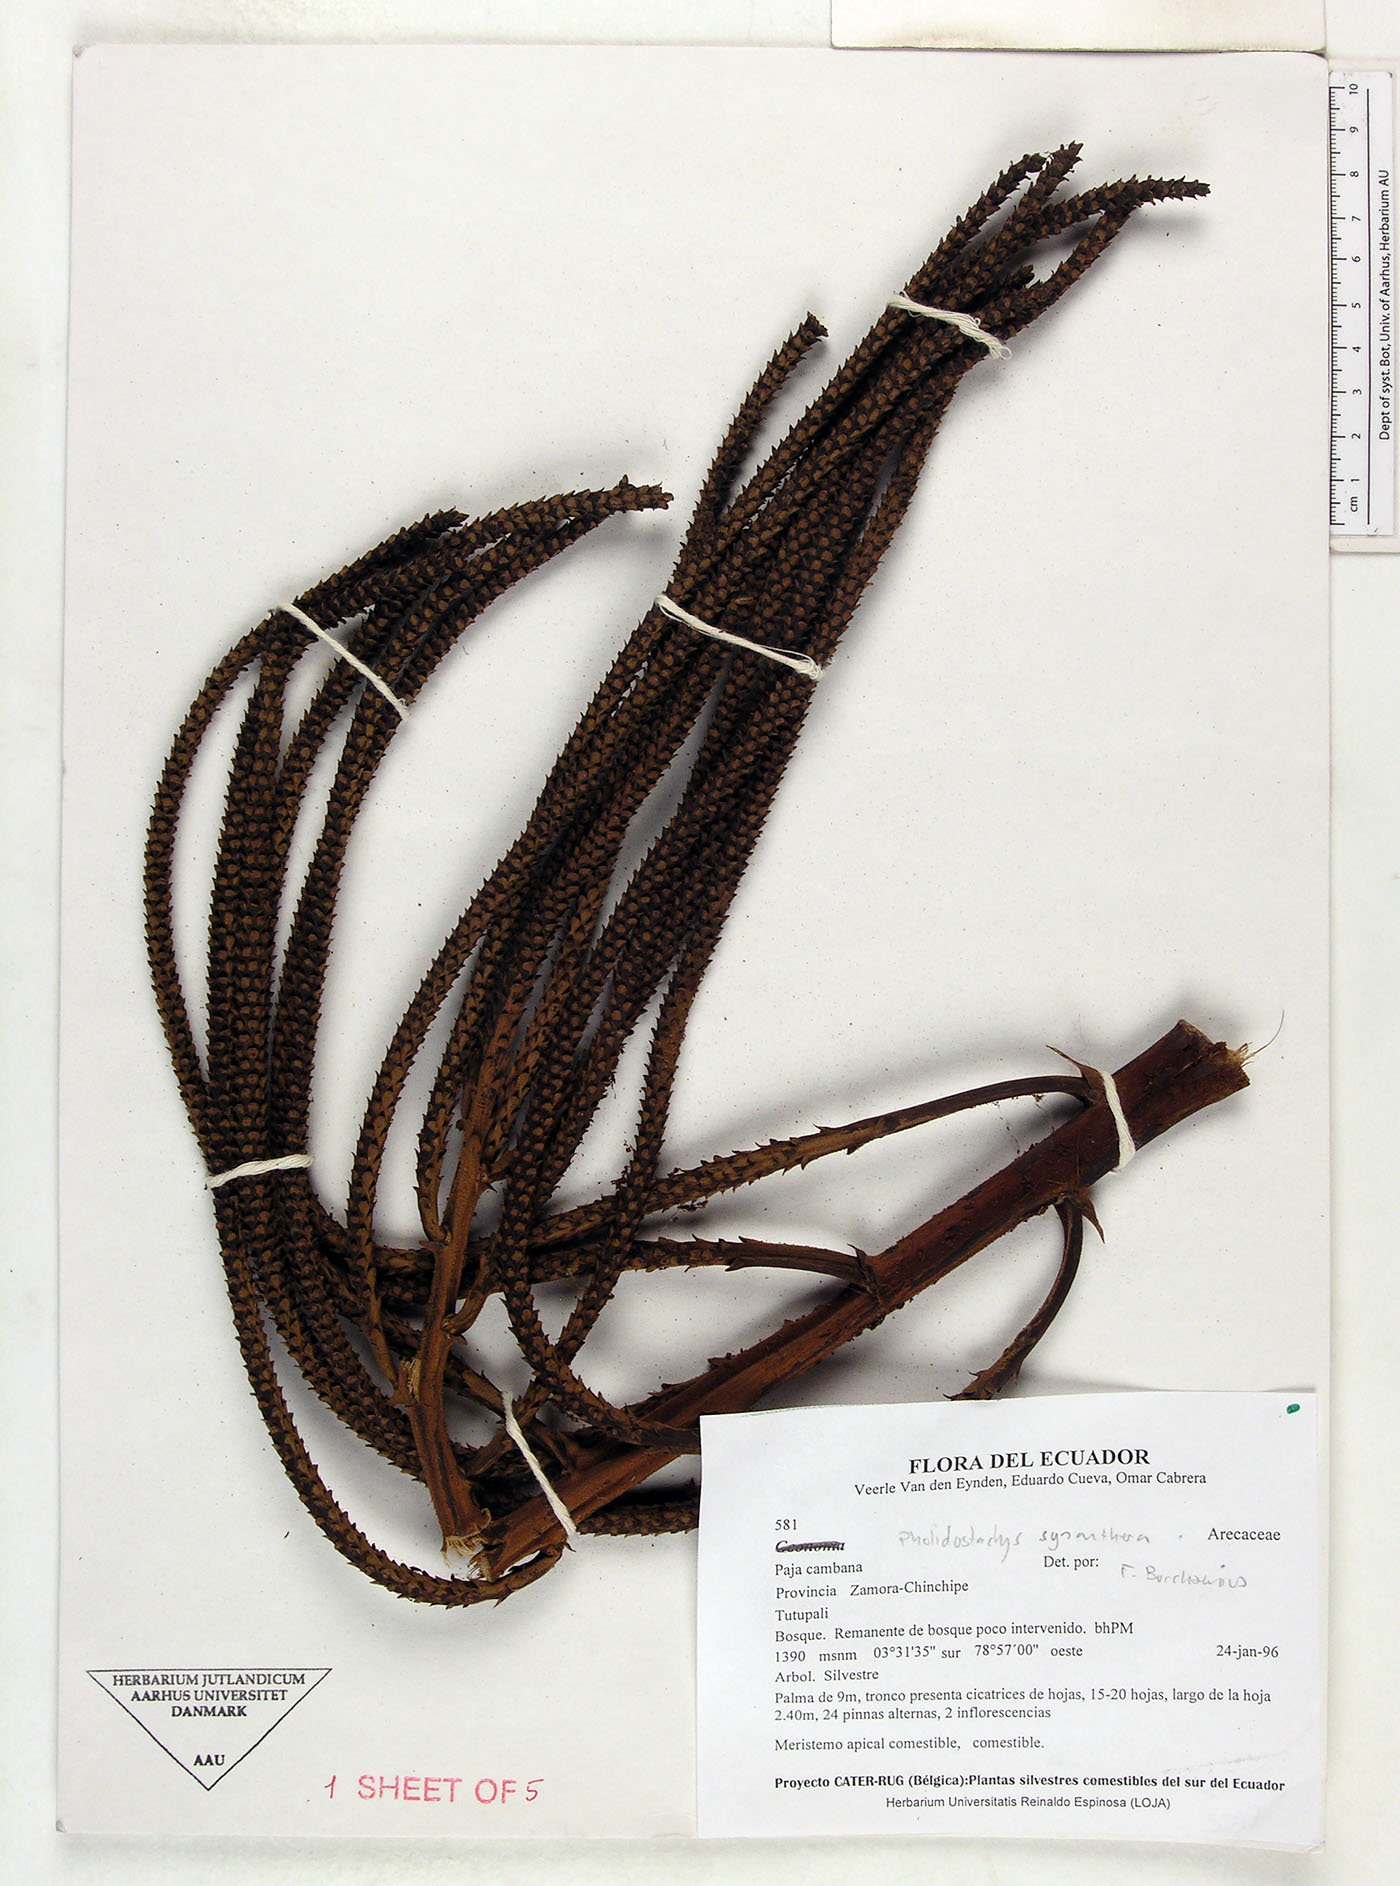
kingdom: Plantae
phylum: Tracheophyta
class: Liliopsida
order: Arecales
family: Arecaceae
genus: Pholidostachys
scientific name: Pholidostachys synanthera
